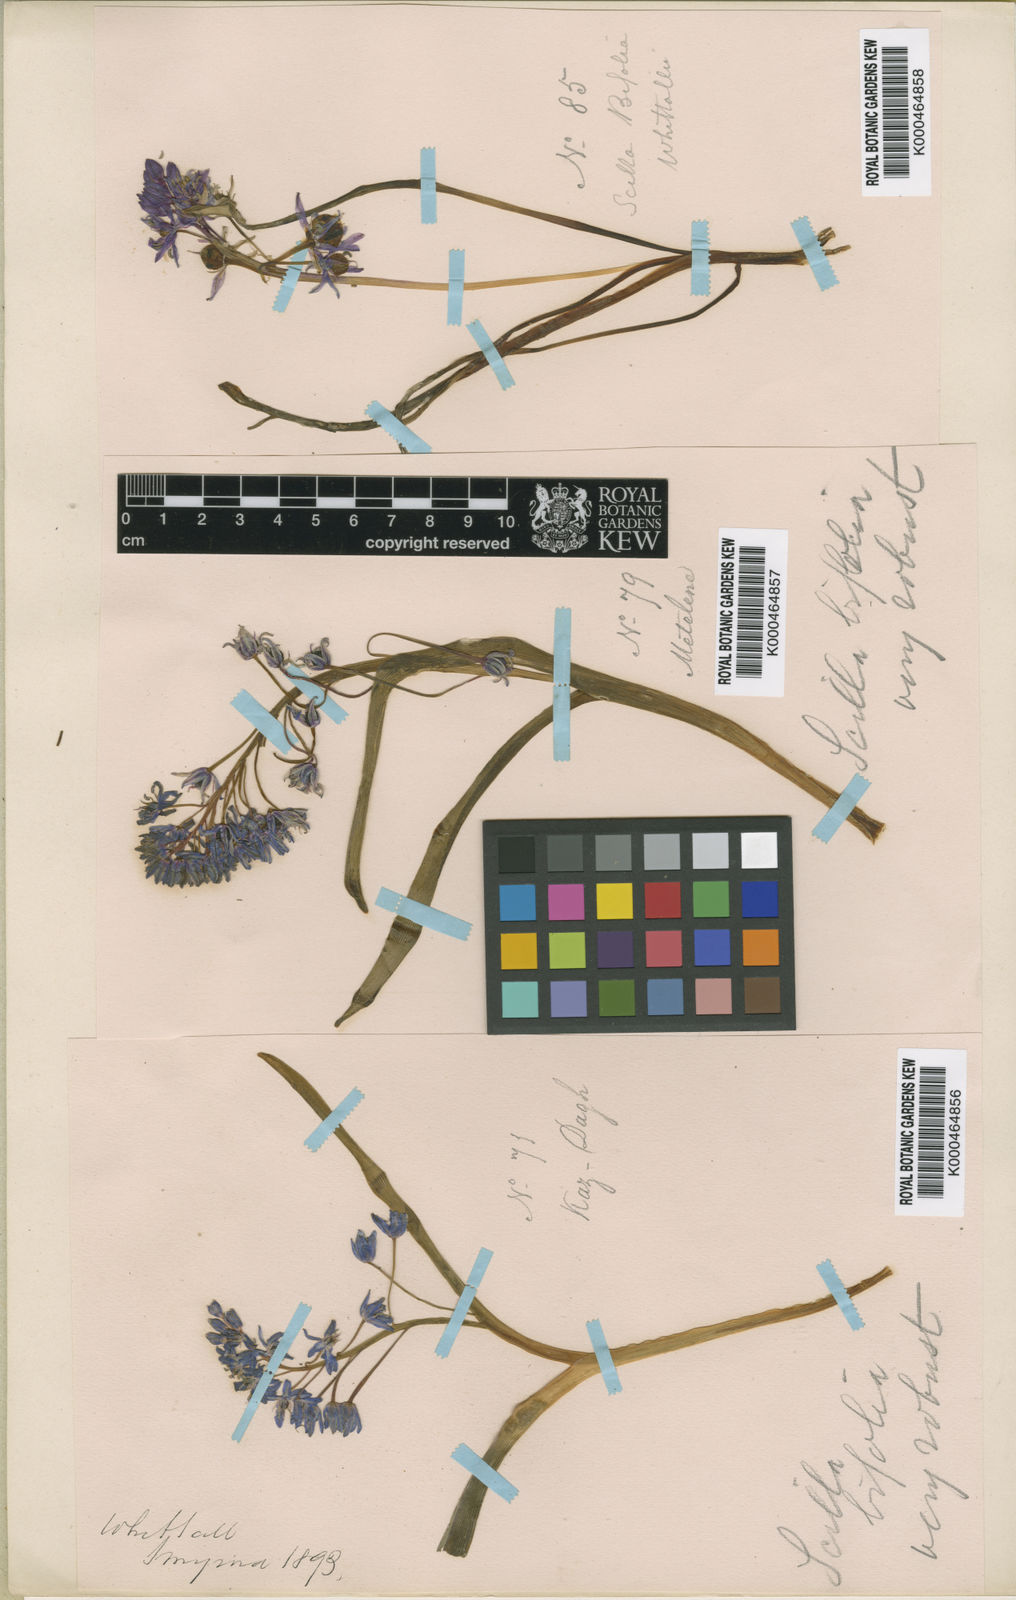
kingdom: Plantae
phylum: Tracheophyta
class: Liliopsida
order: Asparagales
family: Asparagaceae
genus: Scilla
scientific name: Scilla bifolia
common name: Alpine squill
